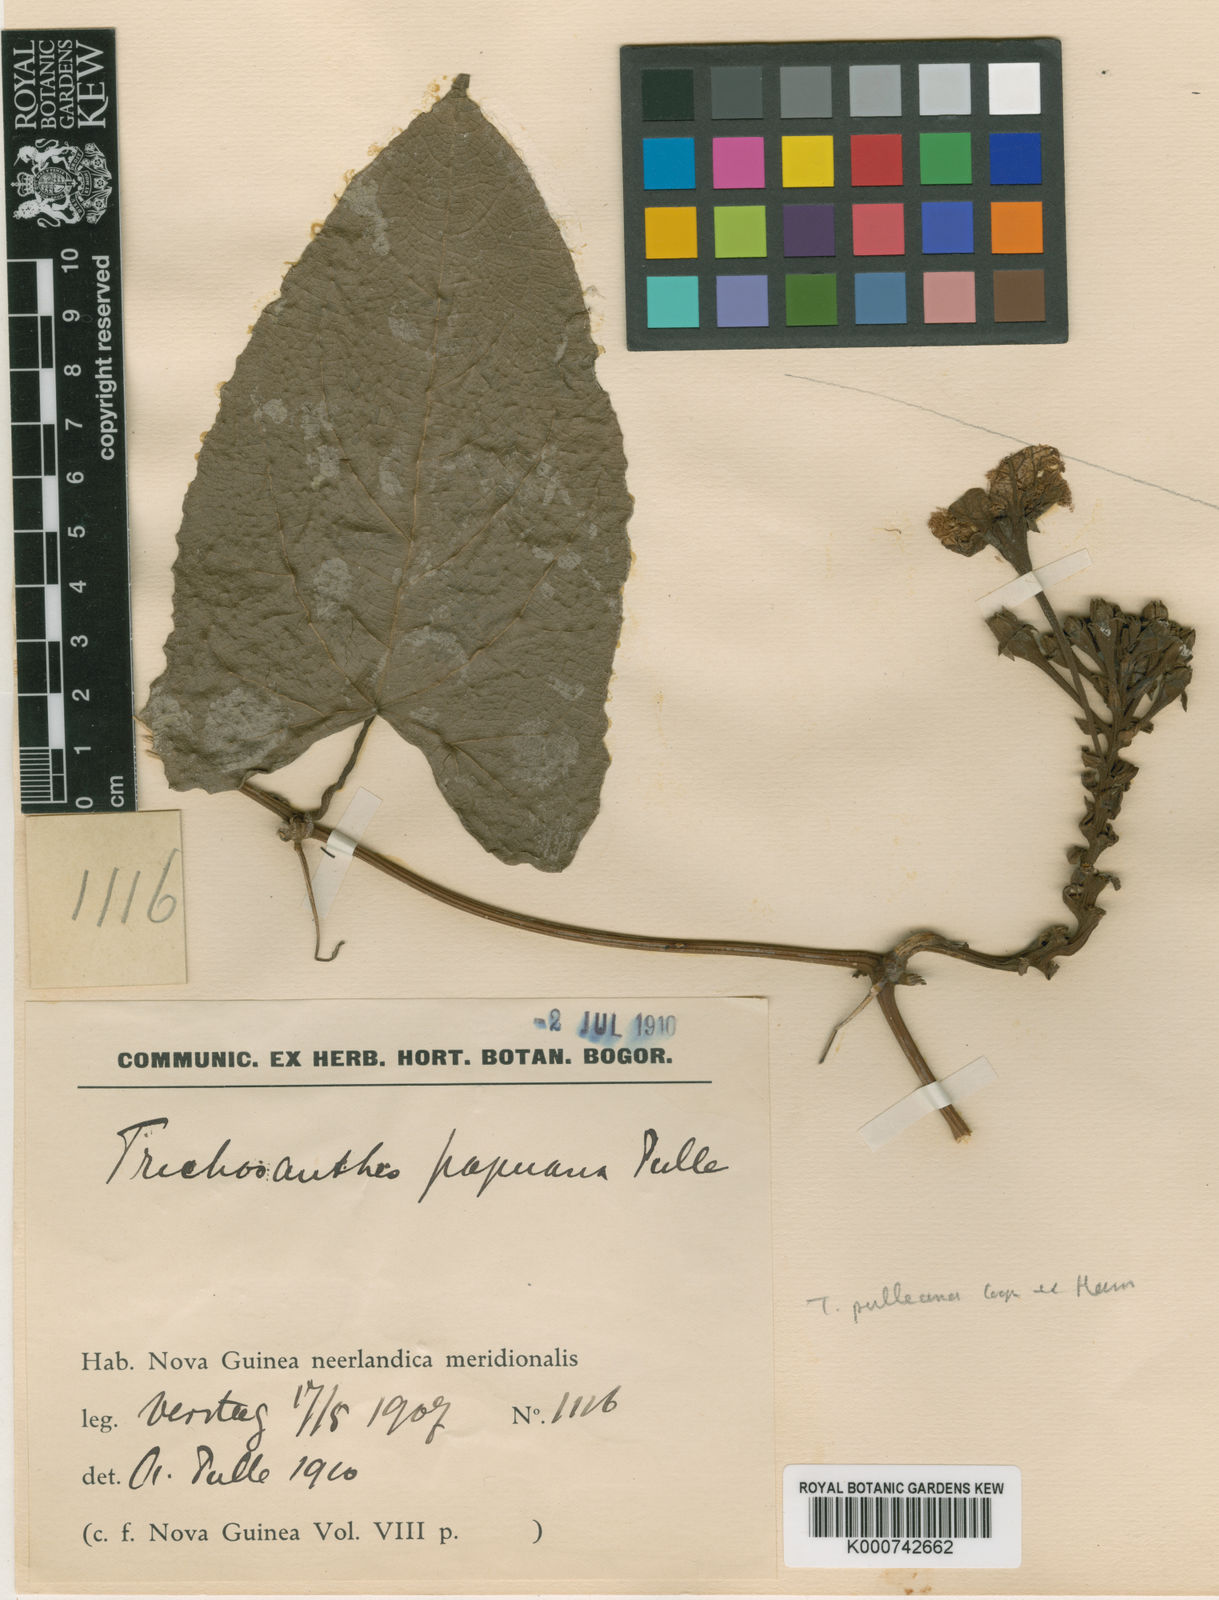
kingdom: Plantae
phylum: Tracheophyta
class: Magnoliopsida
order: Cucurbitales
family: Cucurbitaceae
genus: Trichosanthes
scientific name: Trichosanthes pulleana
